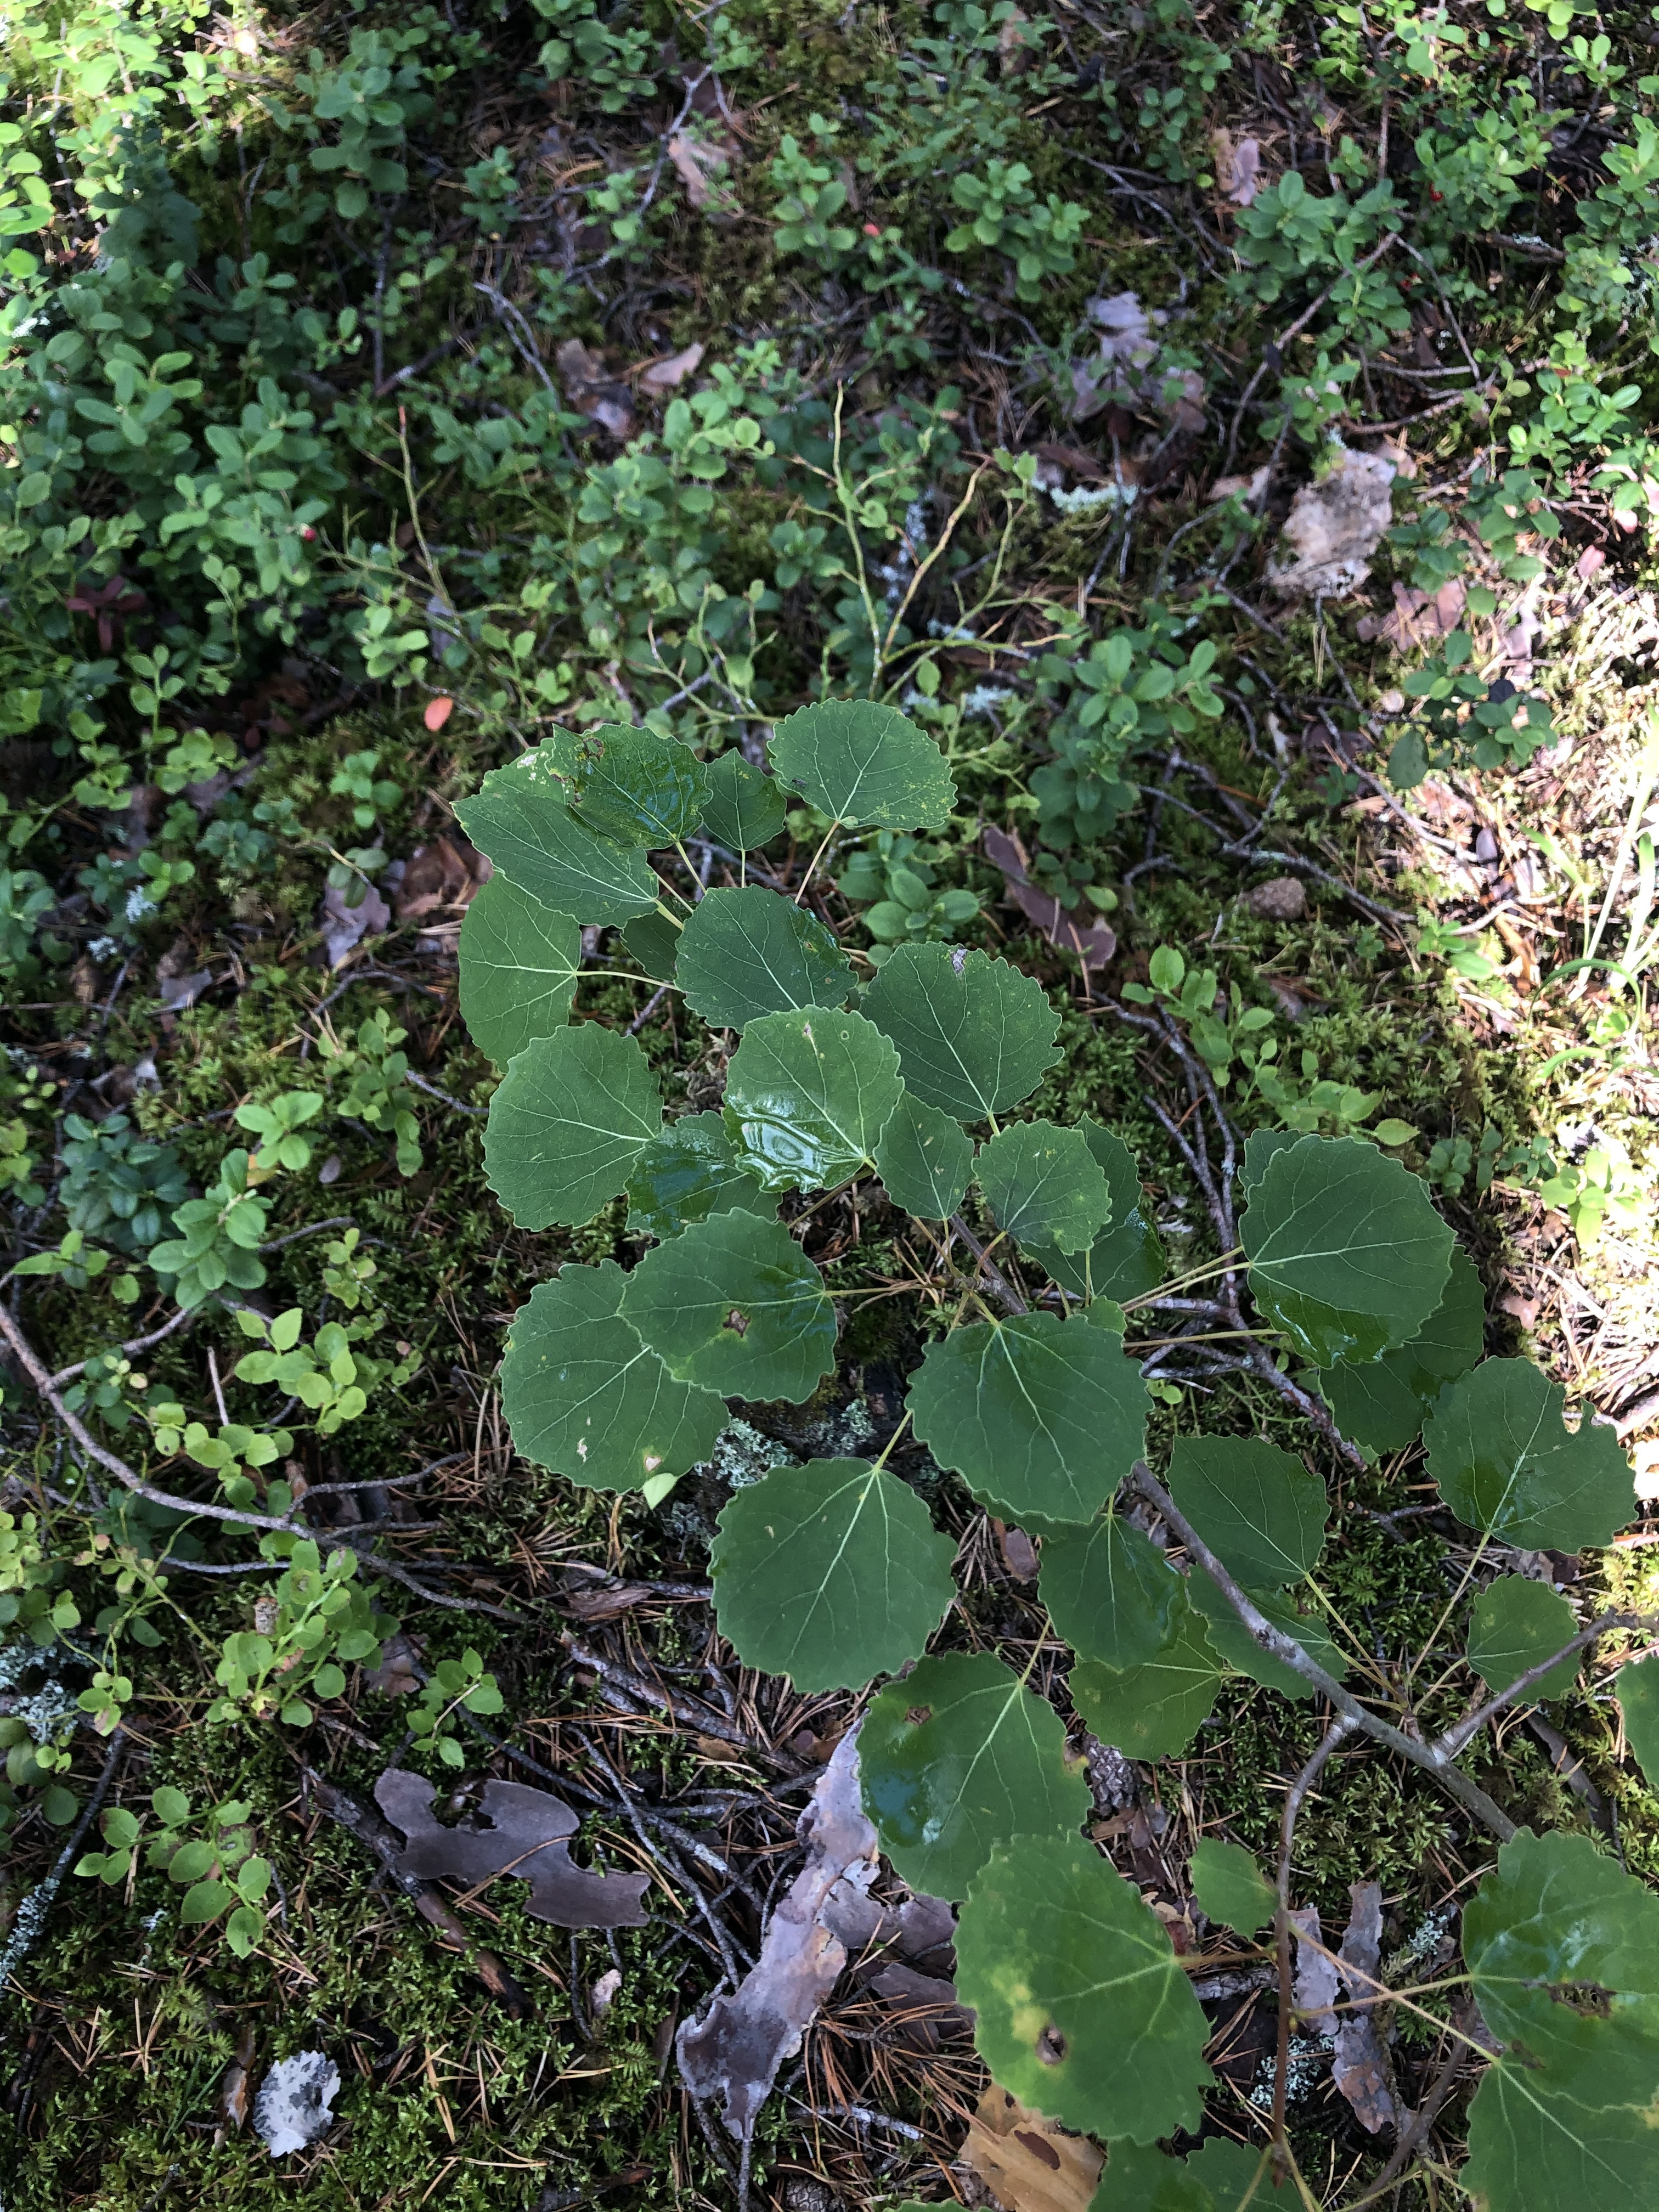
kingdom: Plantae
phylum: Tracheophyta
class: Magnoliopsida
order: Malpighiales
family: Salicaceae
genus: Populus
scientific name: Populus tremula
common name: European aspen
